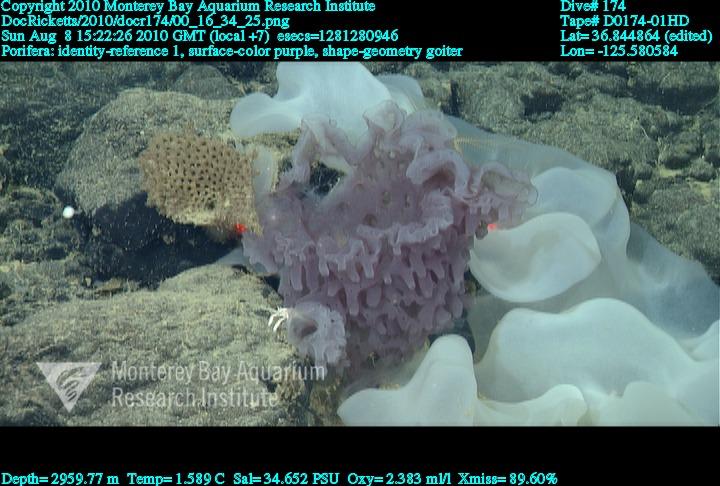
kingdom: Animalia
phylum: Porifera
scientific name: Porifera
